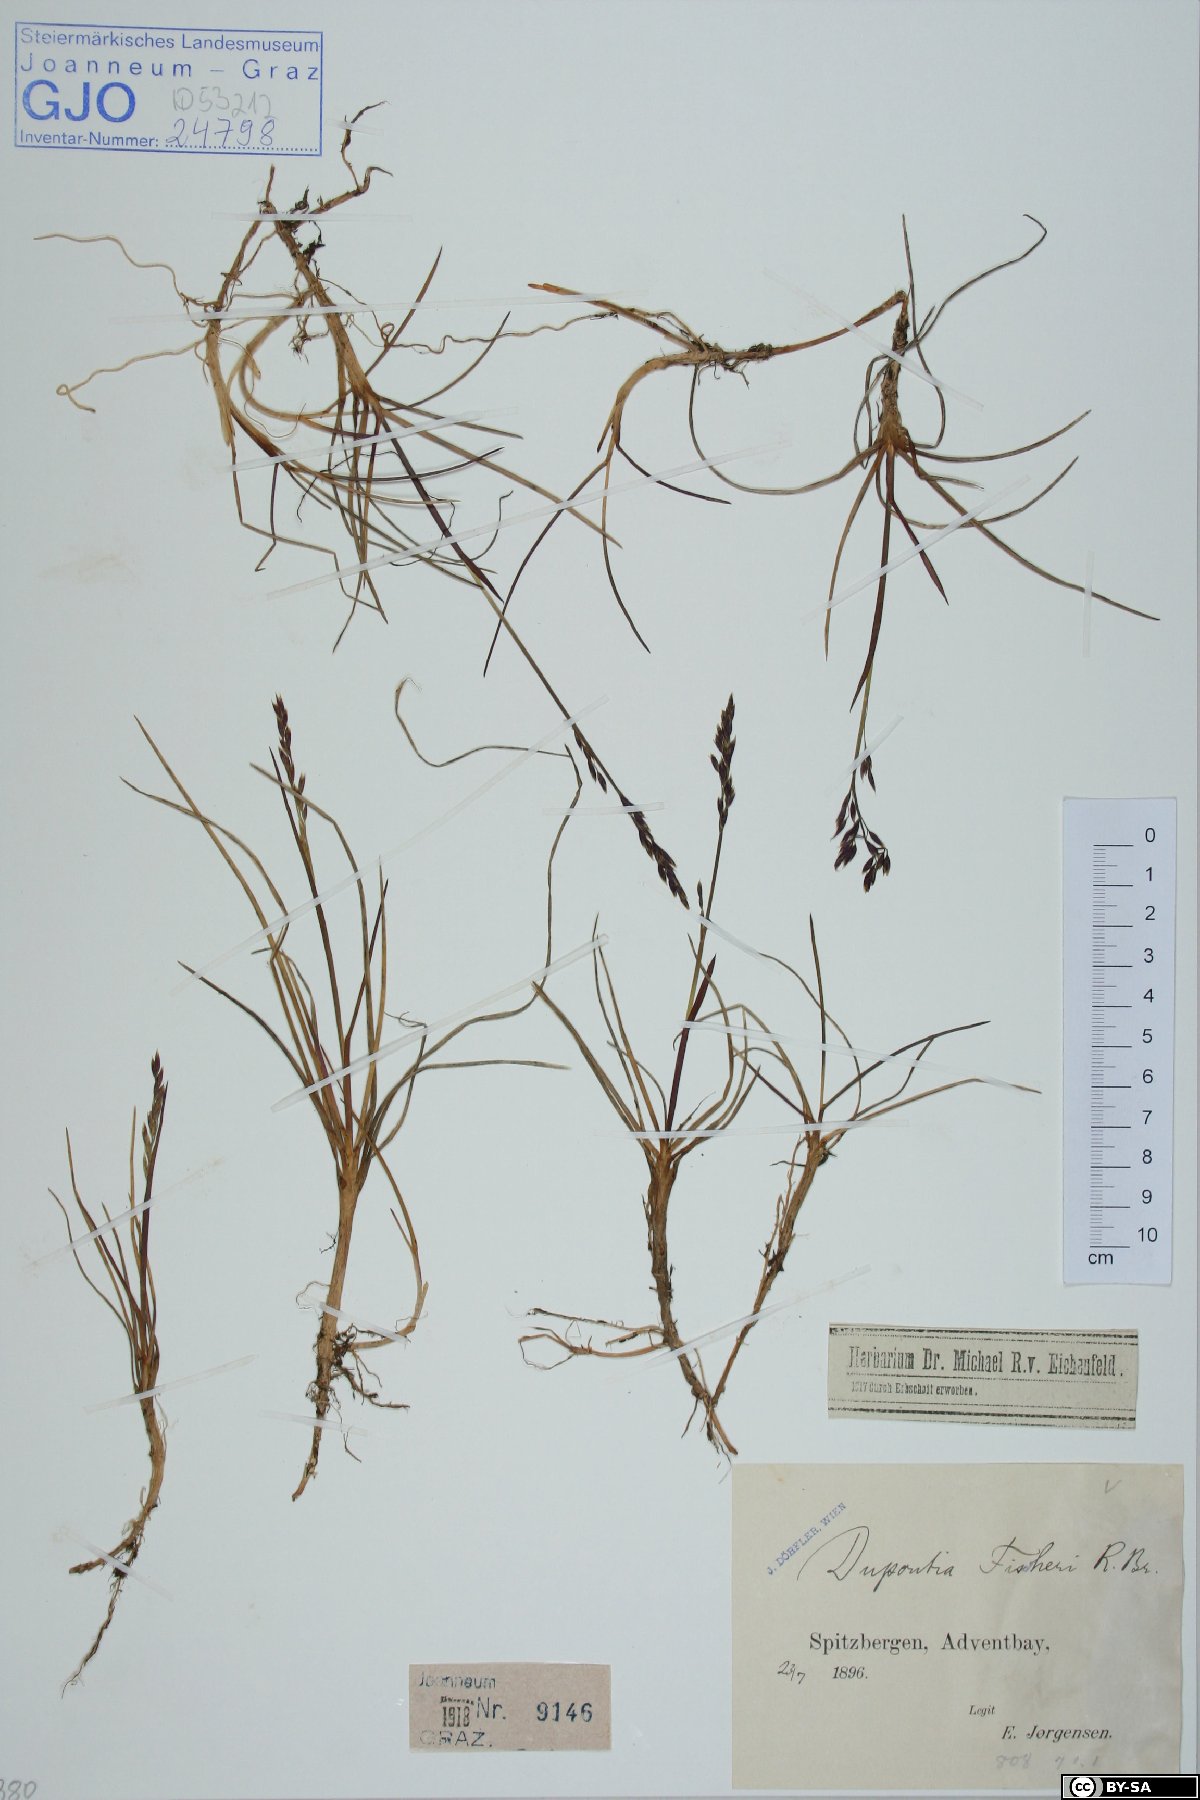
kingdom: Plantae
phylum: Tracheophyta
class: Liliopsida
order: Poales
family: Poaceae
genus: Dupontia
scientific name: Dupontia fisheri
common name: Tundra grass
